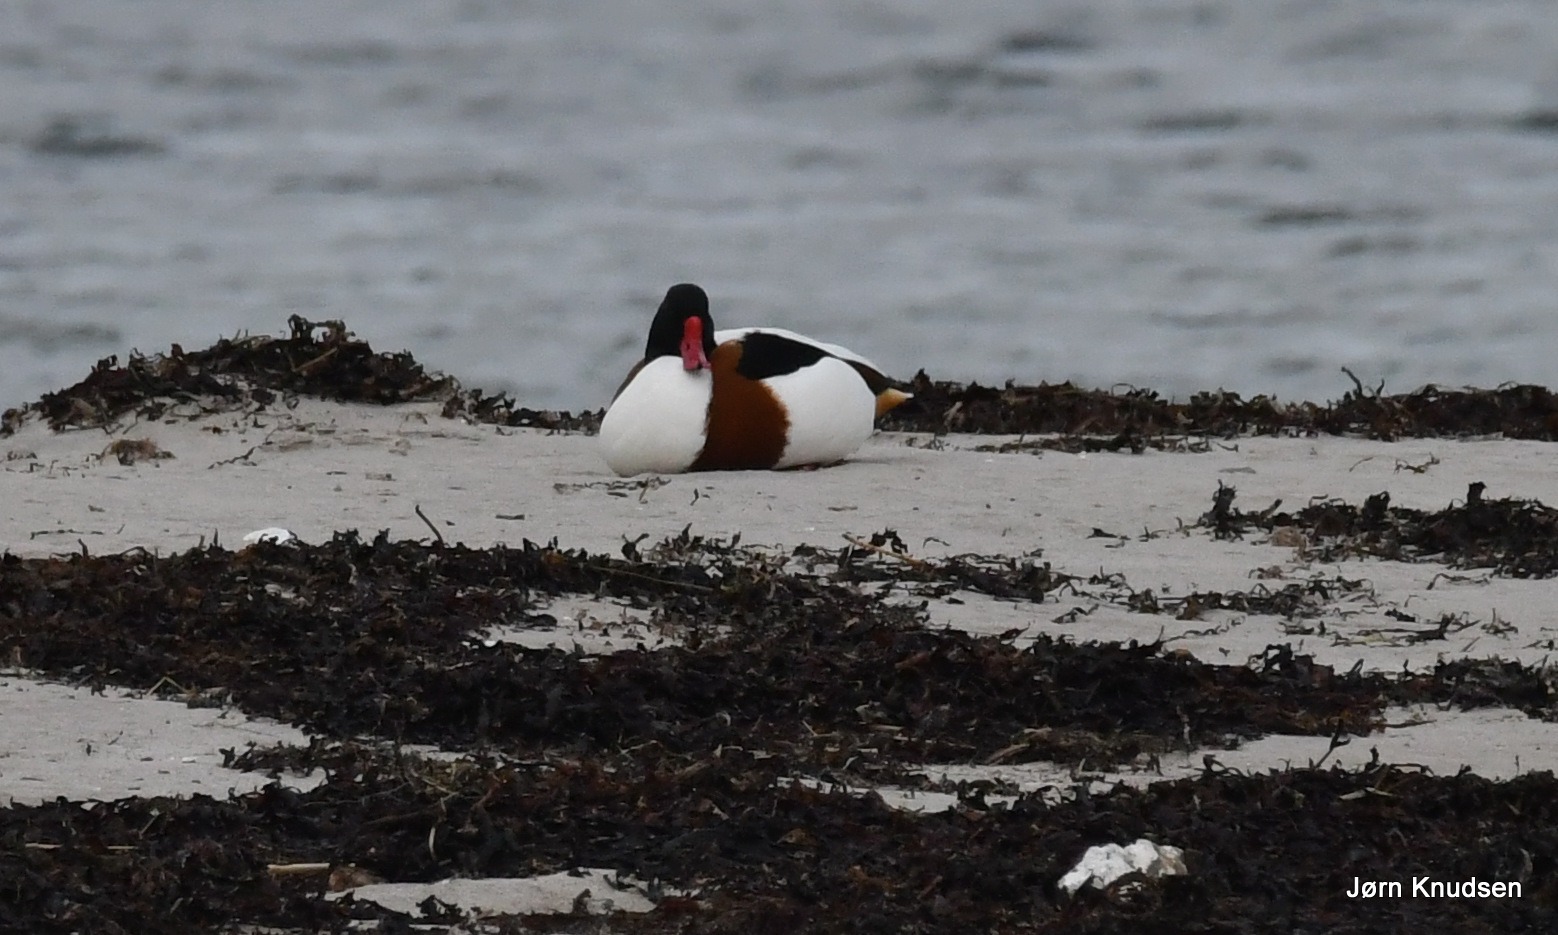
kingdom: Animalia
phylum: Chordata
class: Aves
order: Anseriformes
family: Anatidae
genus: Tadorna
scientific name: Tadorna tadorna
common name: Gravand
